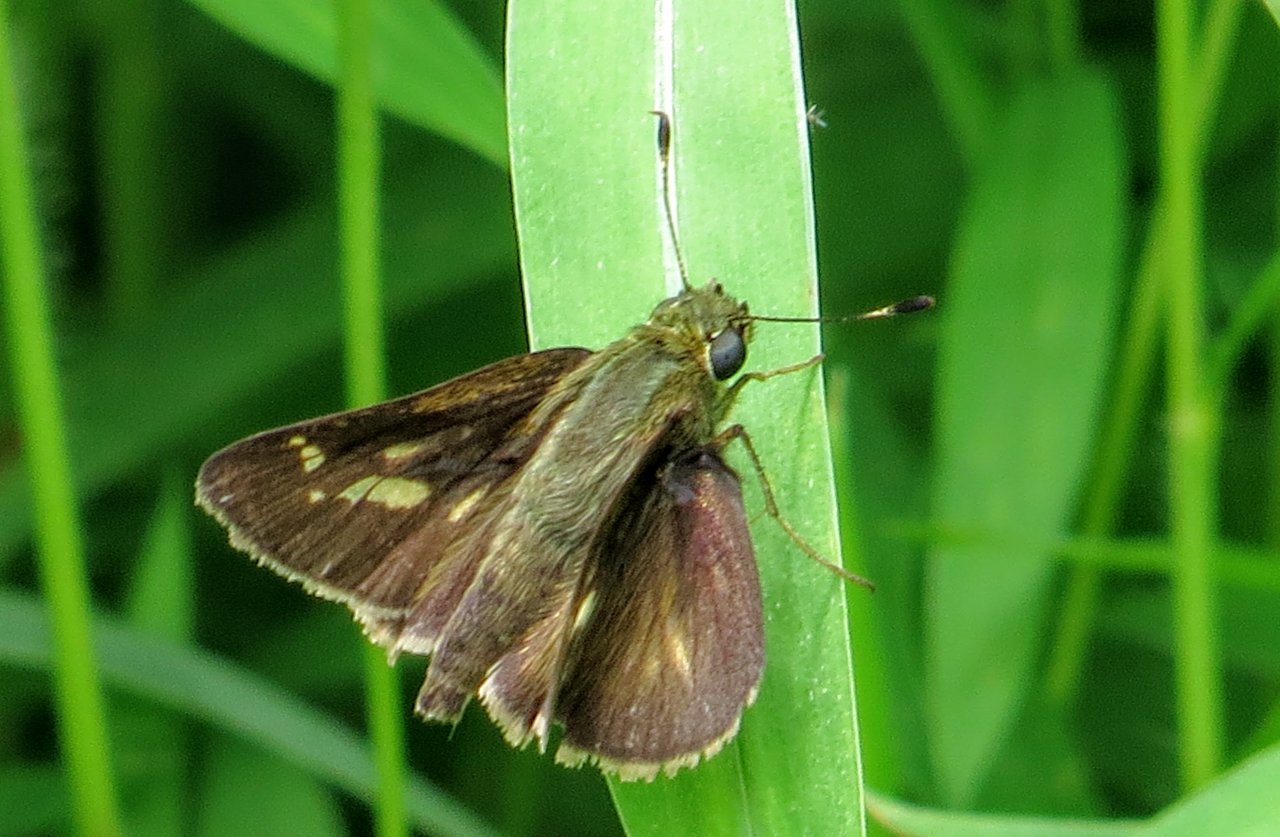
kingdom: Animalia
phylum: Arthropoda
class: Insecta
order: Lepidoptera
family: Hesperiidae
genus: Vernia
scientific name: Vernia verna
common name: Little Glassywing
